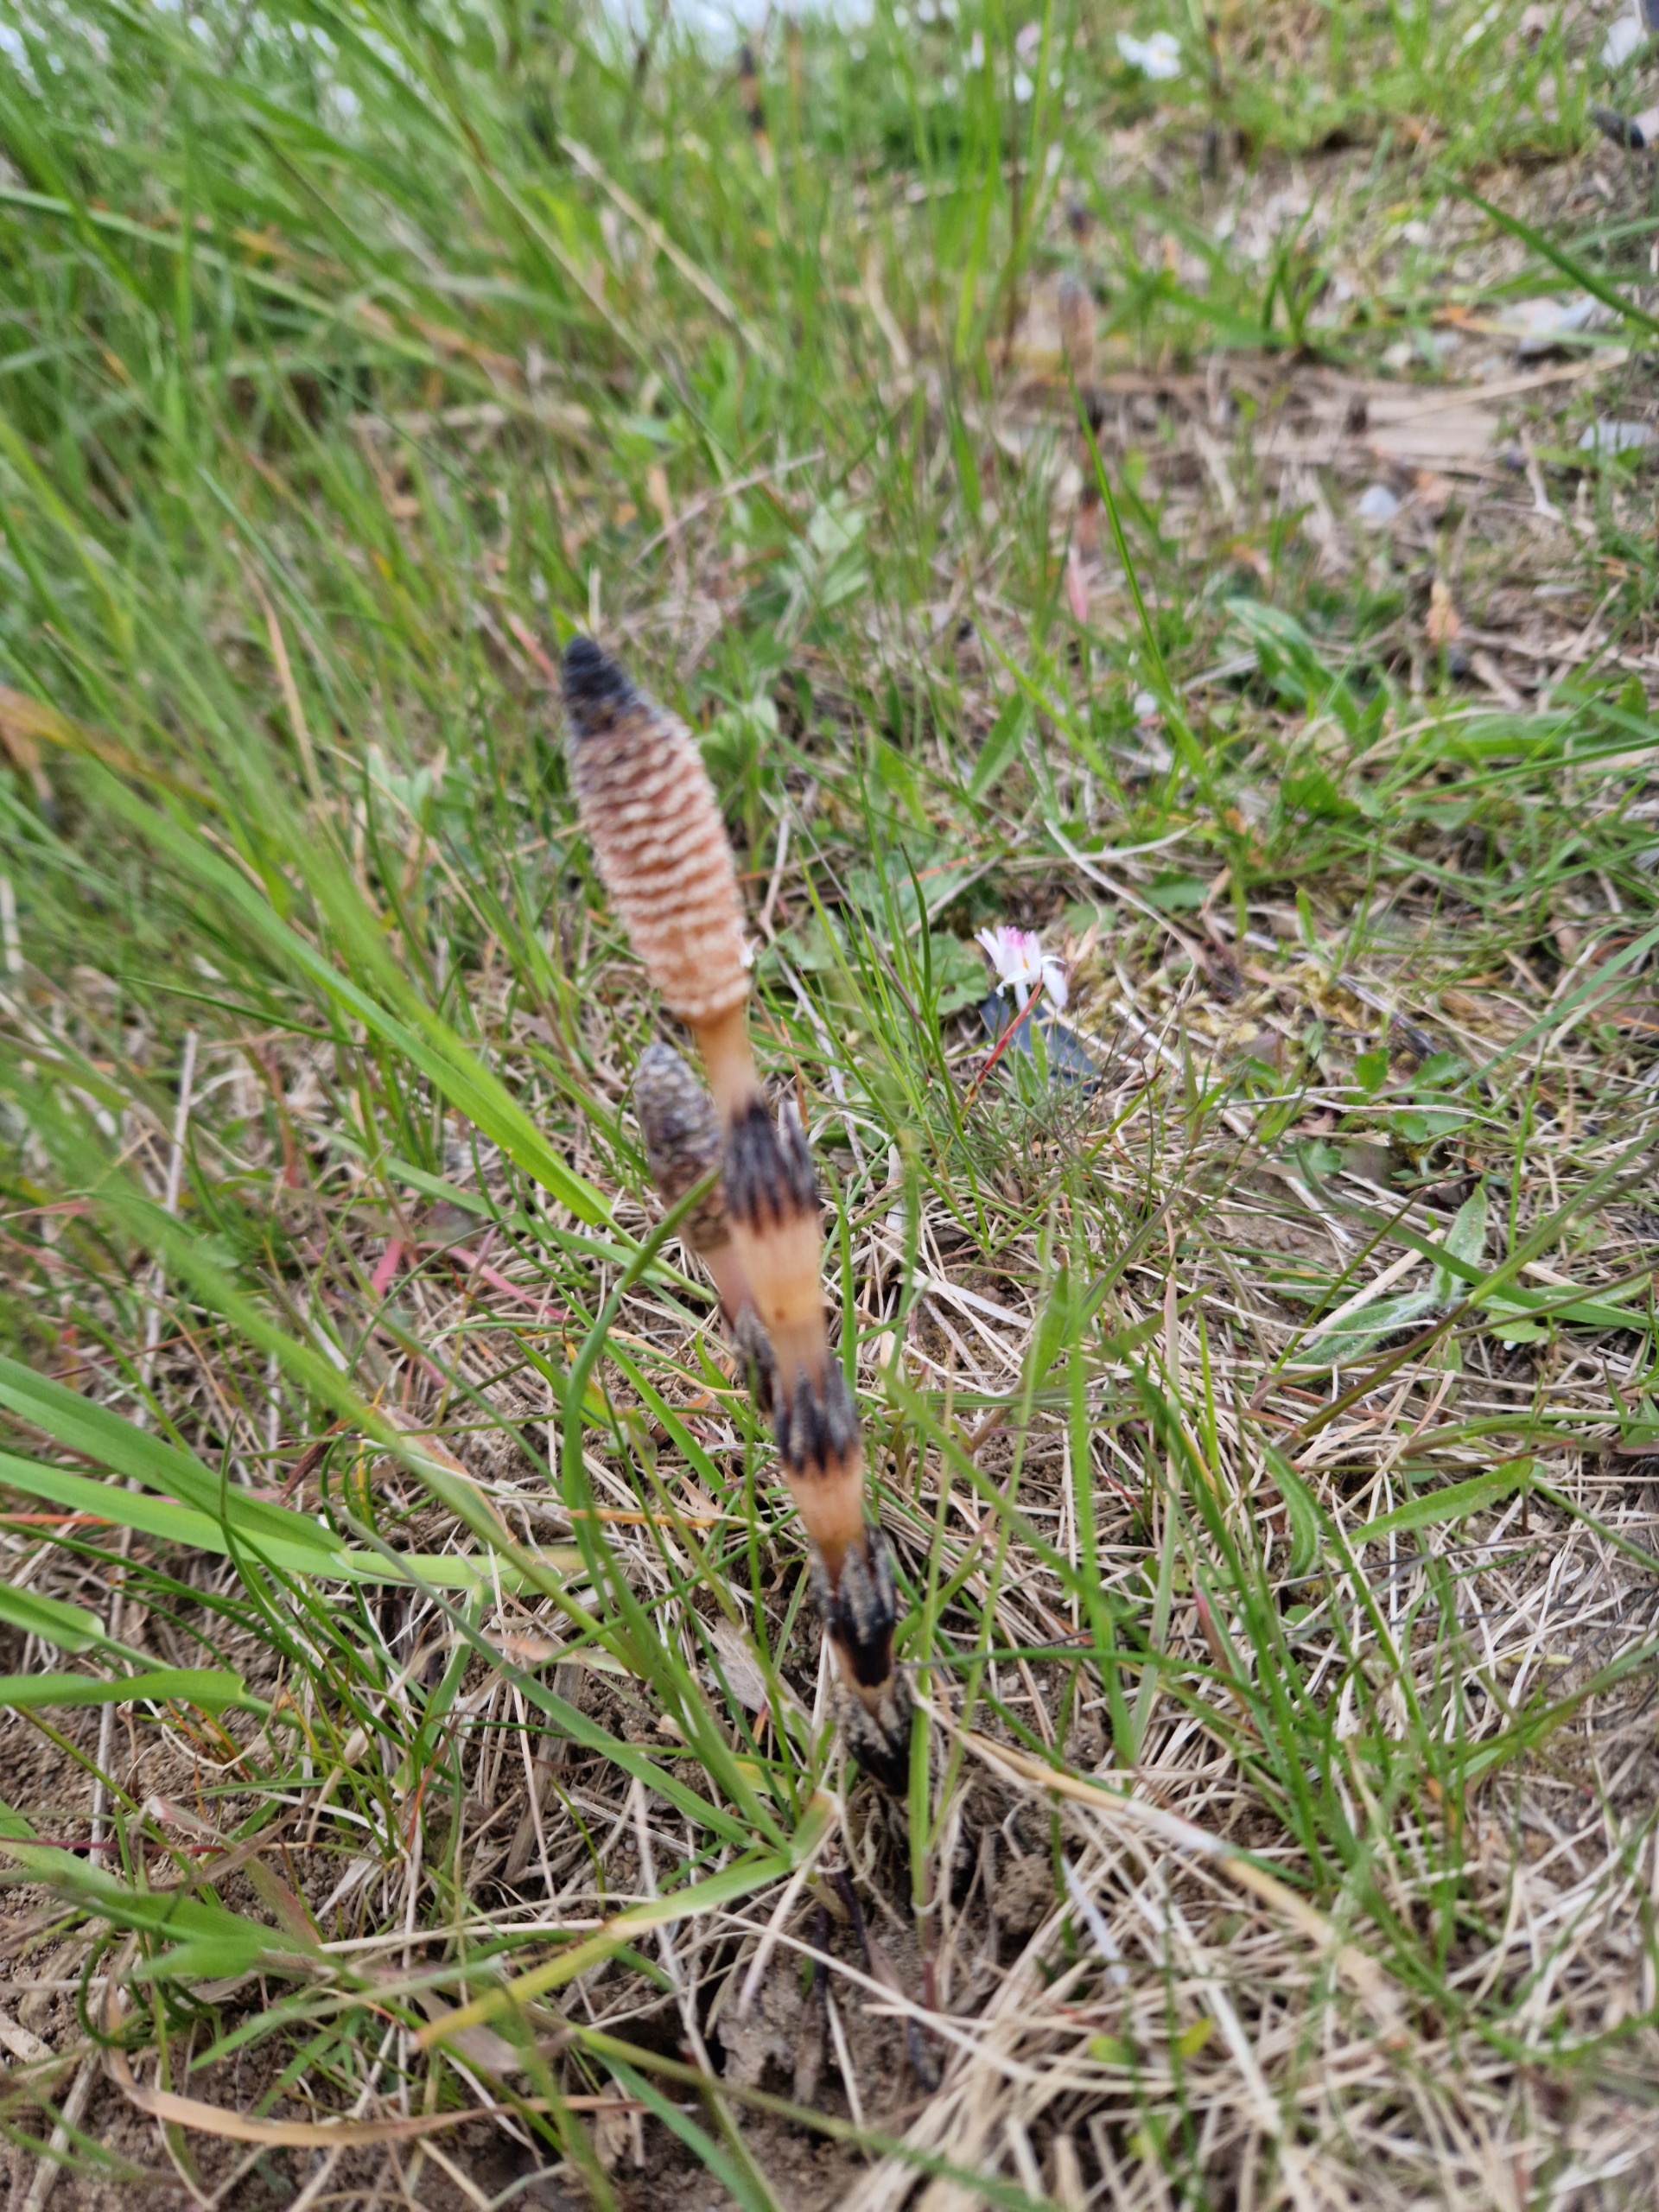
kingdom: Plantae
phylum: Tracheophyta
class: Polypodiopsida
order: Equisetales
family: Equisetaceae
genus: Equisetum
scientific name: Equisetum arvense
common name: Ager-padderok
